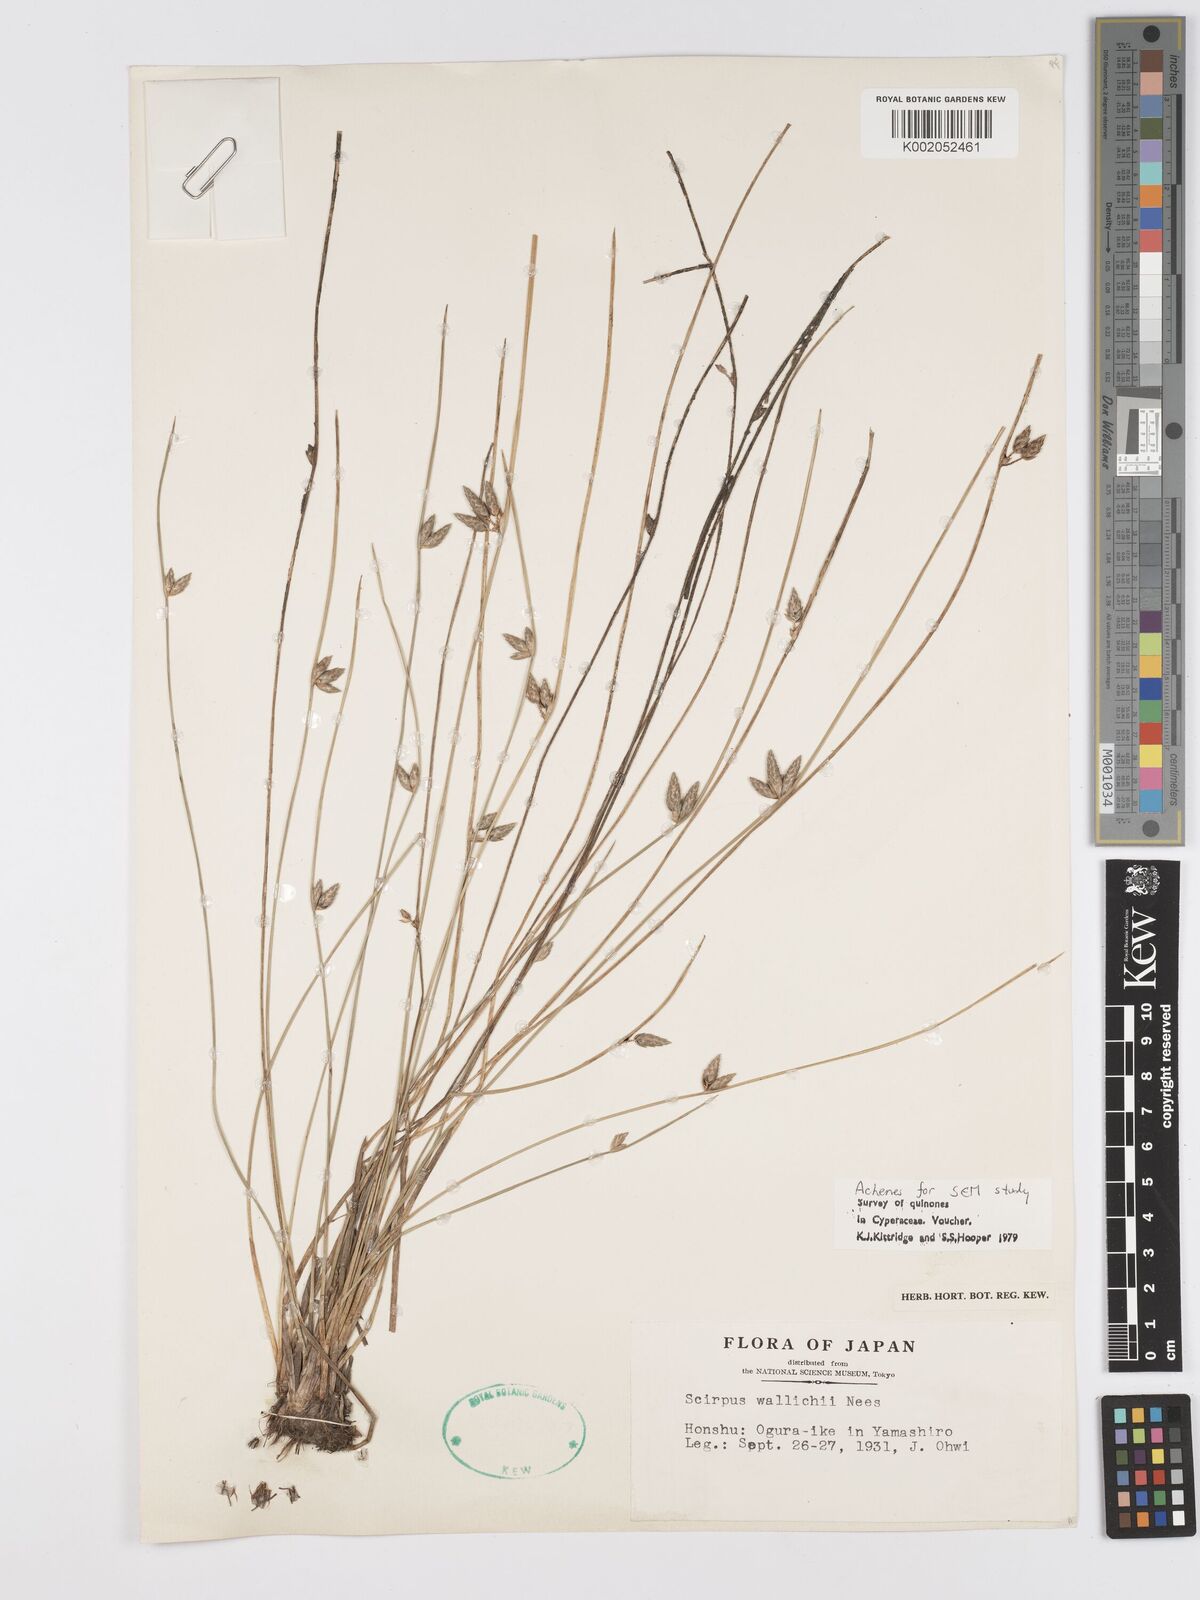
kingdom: Plantae
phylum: Tracheophyta
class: Liliopsida
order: Poales
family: Cyperaceae
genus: Schoenoplectiella
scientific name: Schoenoplectiella wallichii
